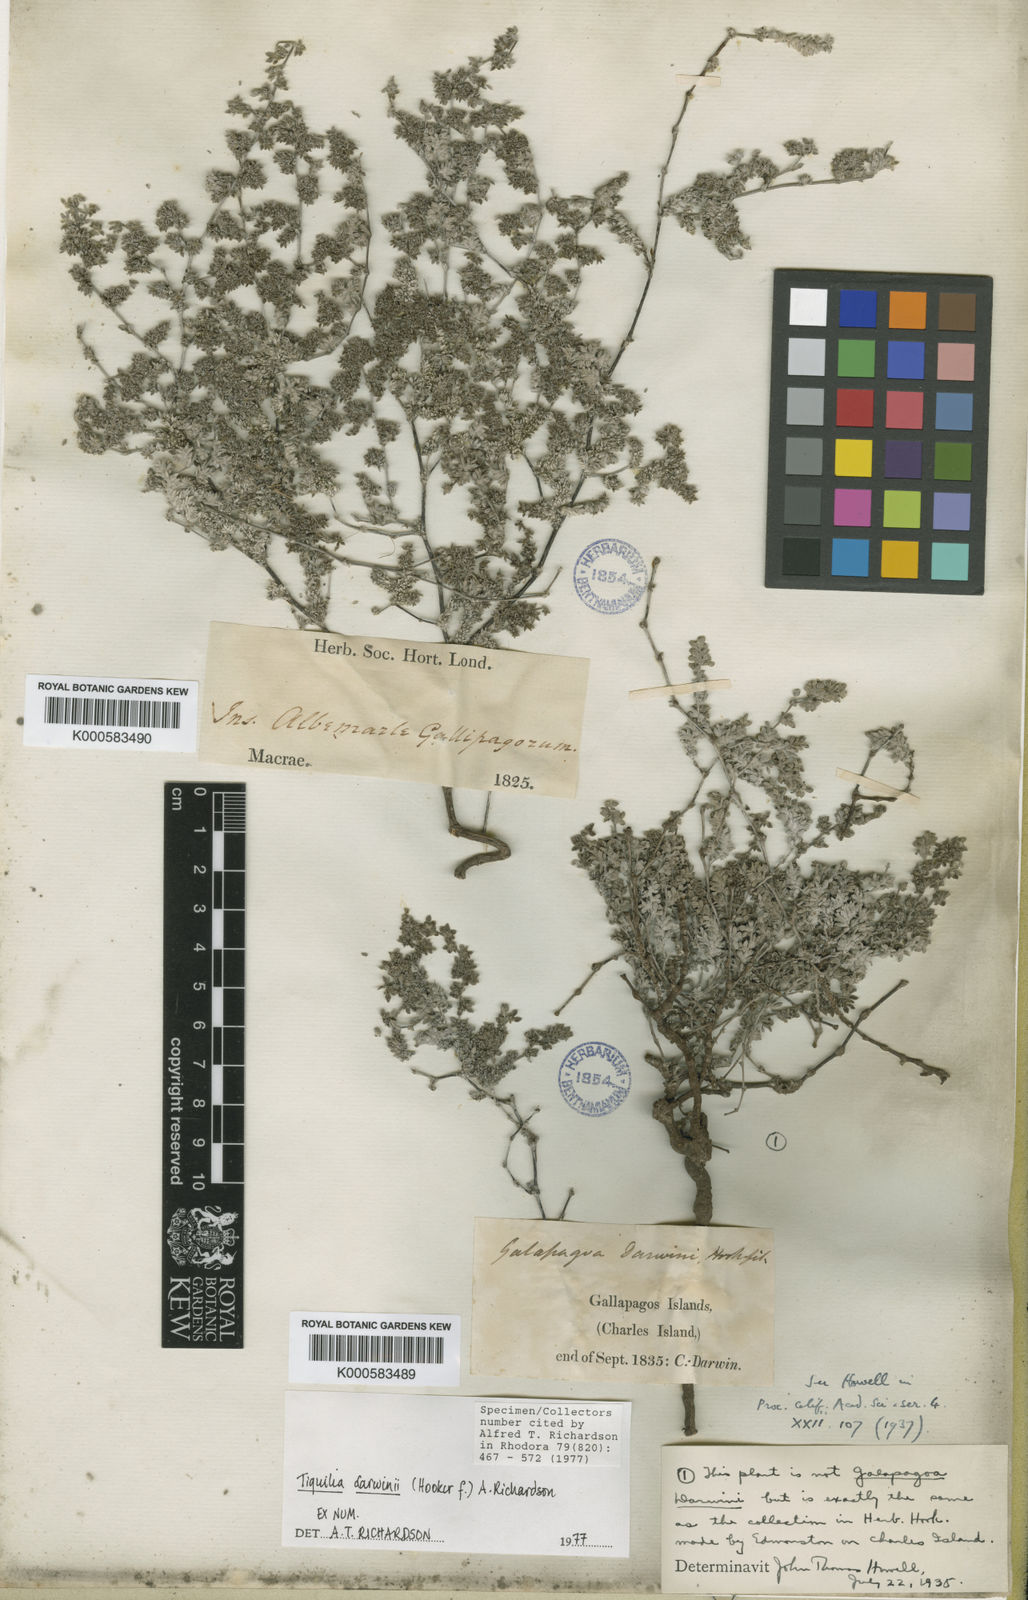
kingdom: Plantae
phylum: Tracheophyta
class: Magnoliopsida
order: Boraginales
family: Ehretiaceae
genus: Tiquilia
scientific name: Tiquilia darwinii
